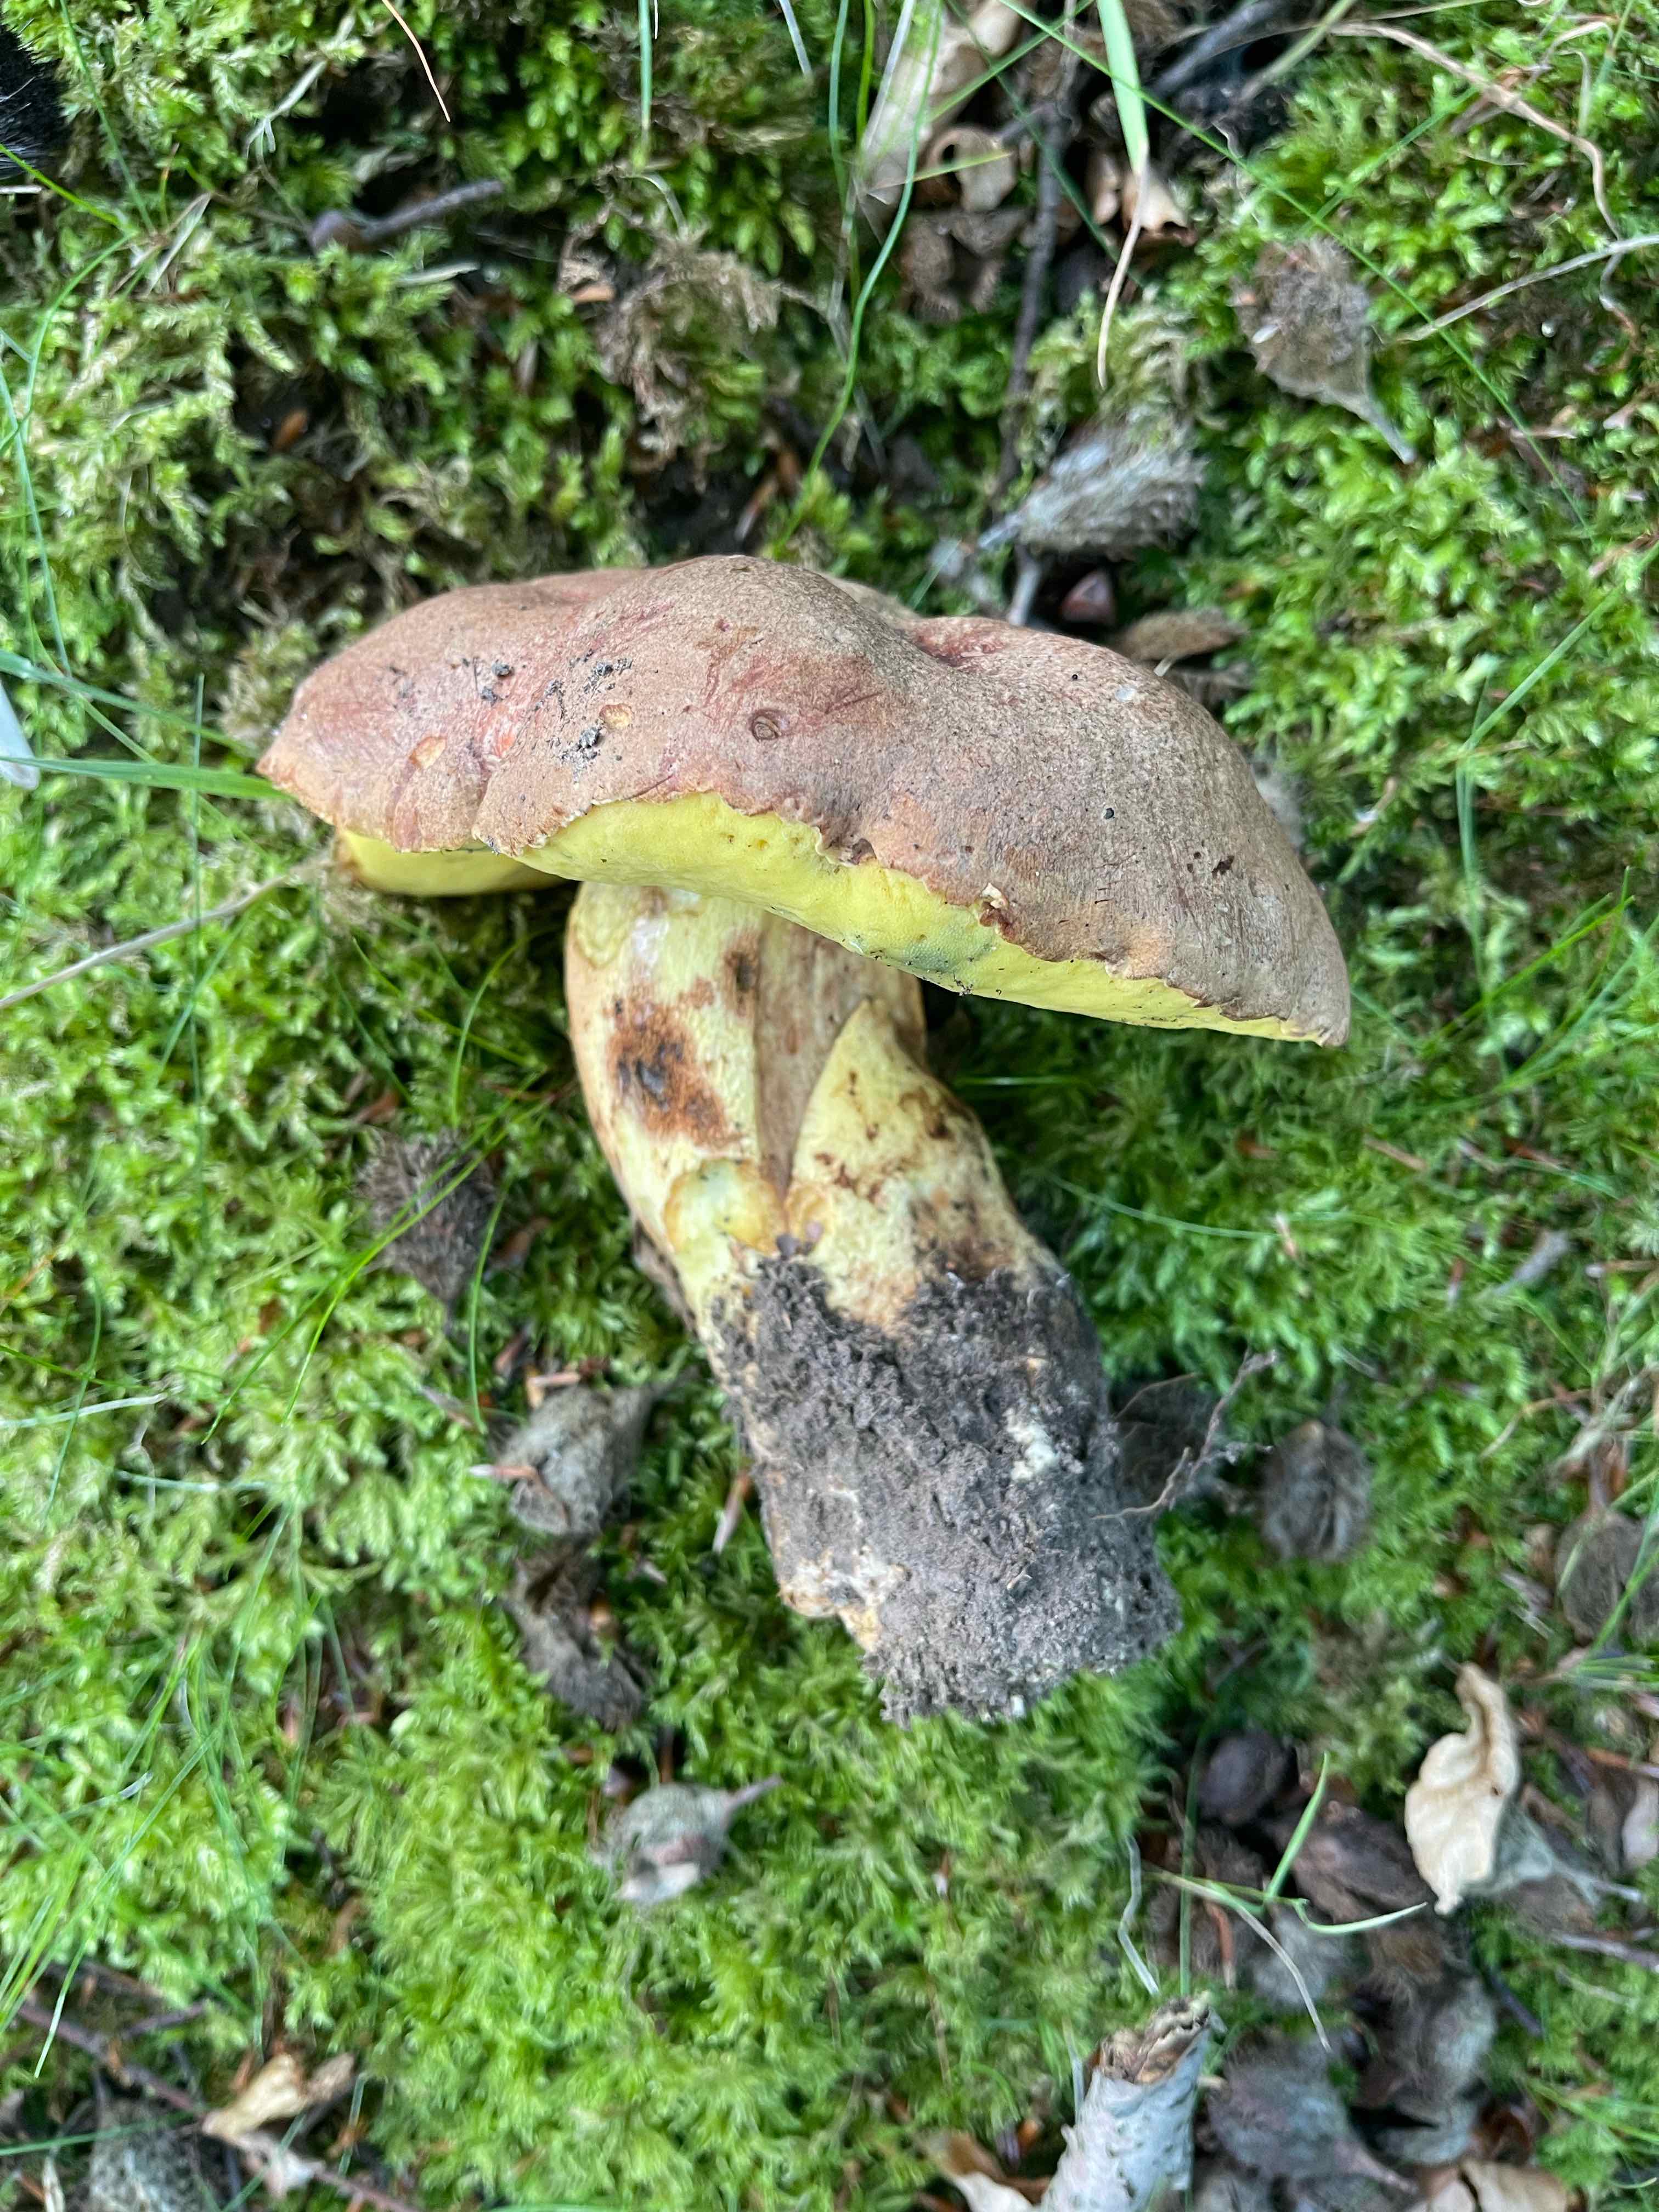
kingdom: Fungi
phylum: Basidiomycota
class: Agaricomycetes
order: Boletales
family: Boletaceae
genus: Butyriboletus
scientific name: Butyriboletus appendiculatus
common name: tenstokket rørhat
